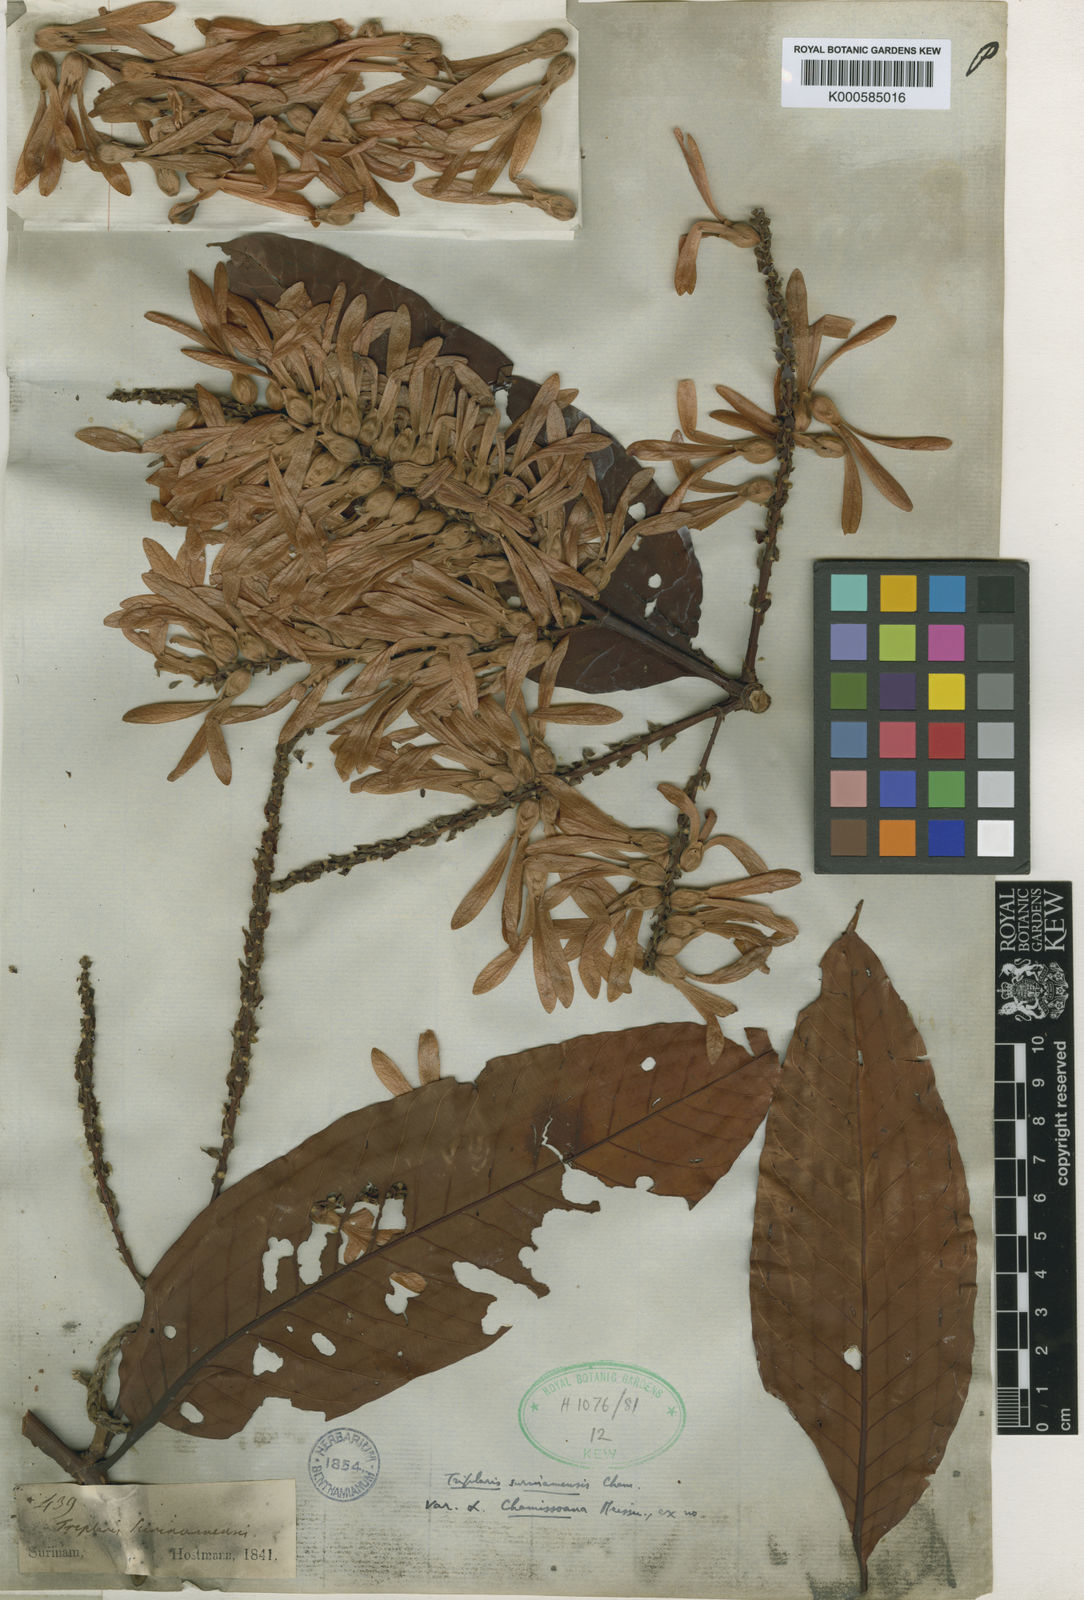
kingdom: Plantae
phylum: Tracheophyta
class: Magnoliopsida
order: Caryophyllales
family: Polygonaceae
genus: Triplaris
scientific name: Triplaris weigeltiana
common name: Long john
